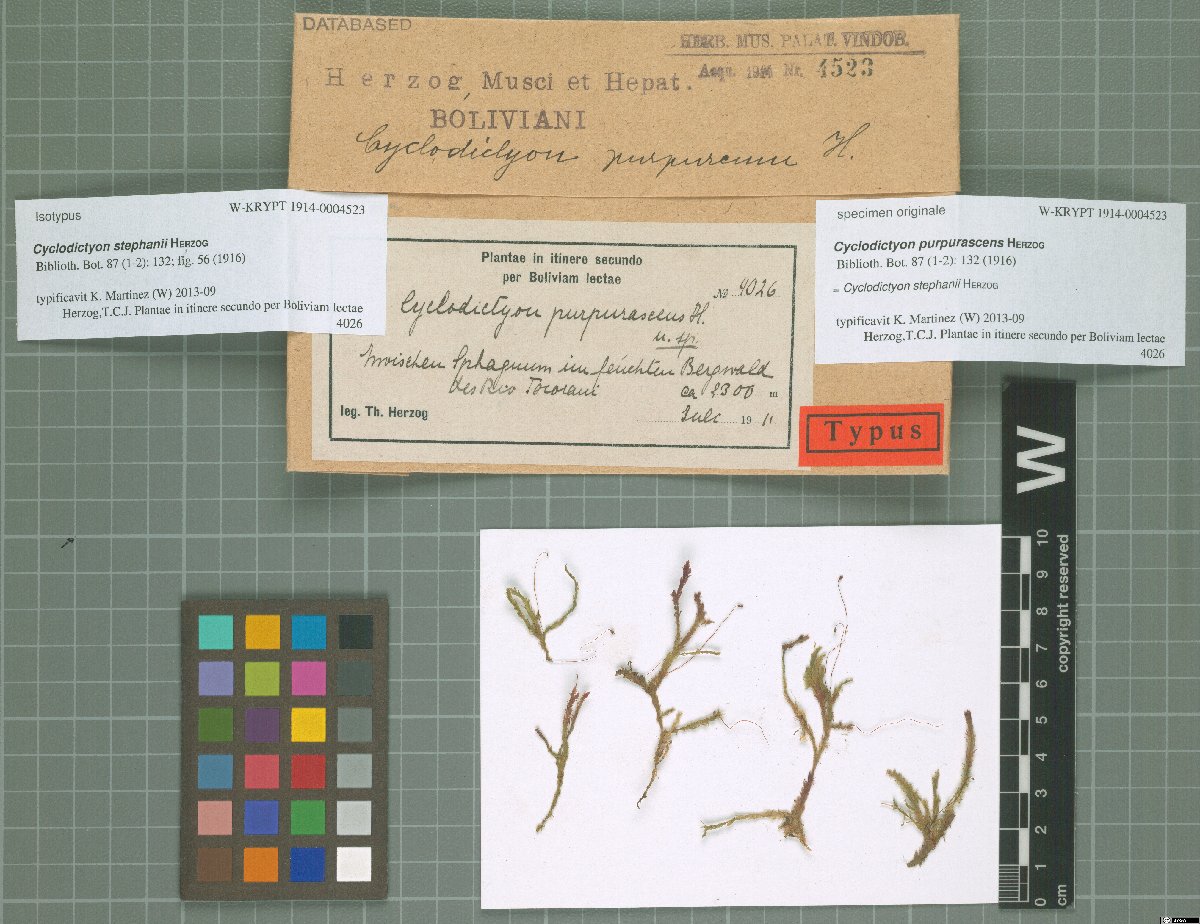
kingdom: Plantae
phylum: Bryophyta
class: Bryopsida
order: Hookeriales
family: Pilotrichaceae
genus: Cyclodictyon
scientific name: Cyclodictyon stephanii
